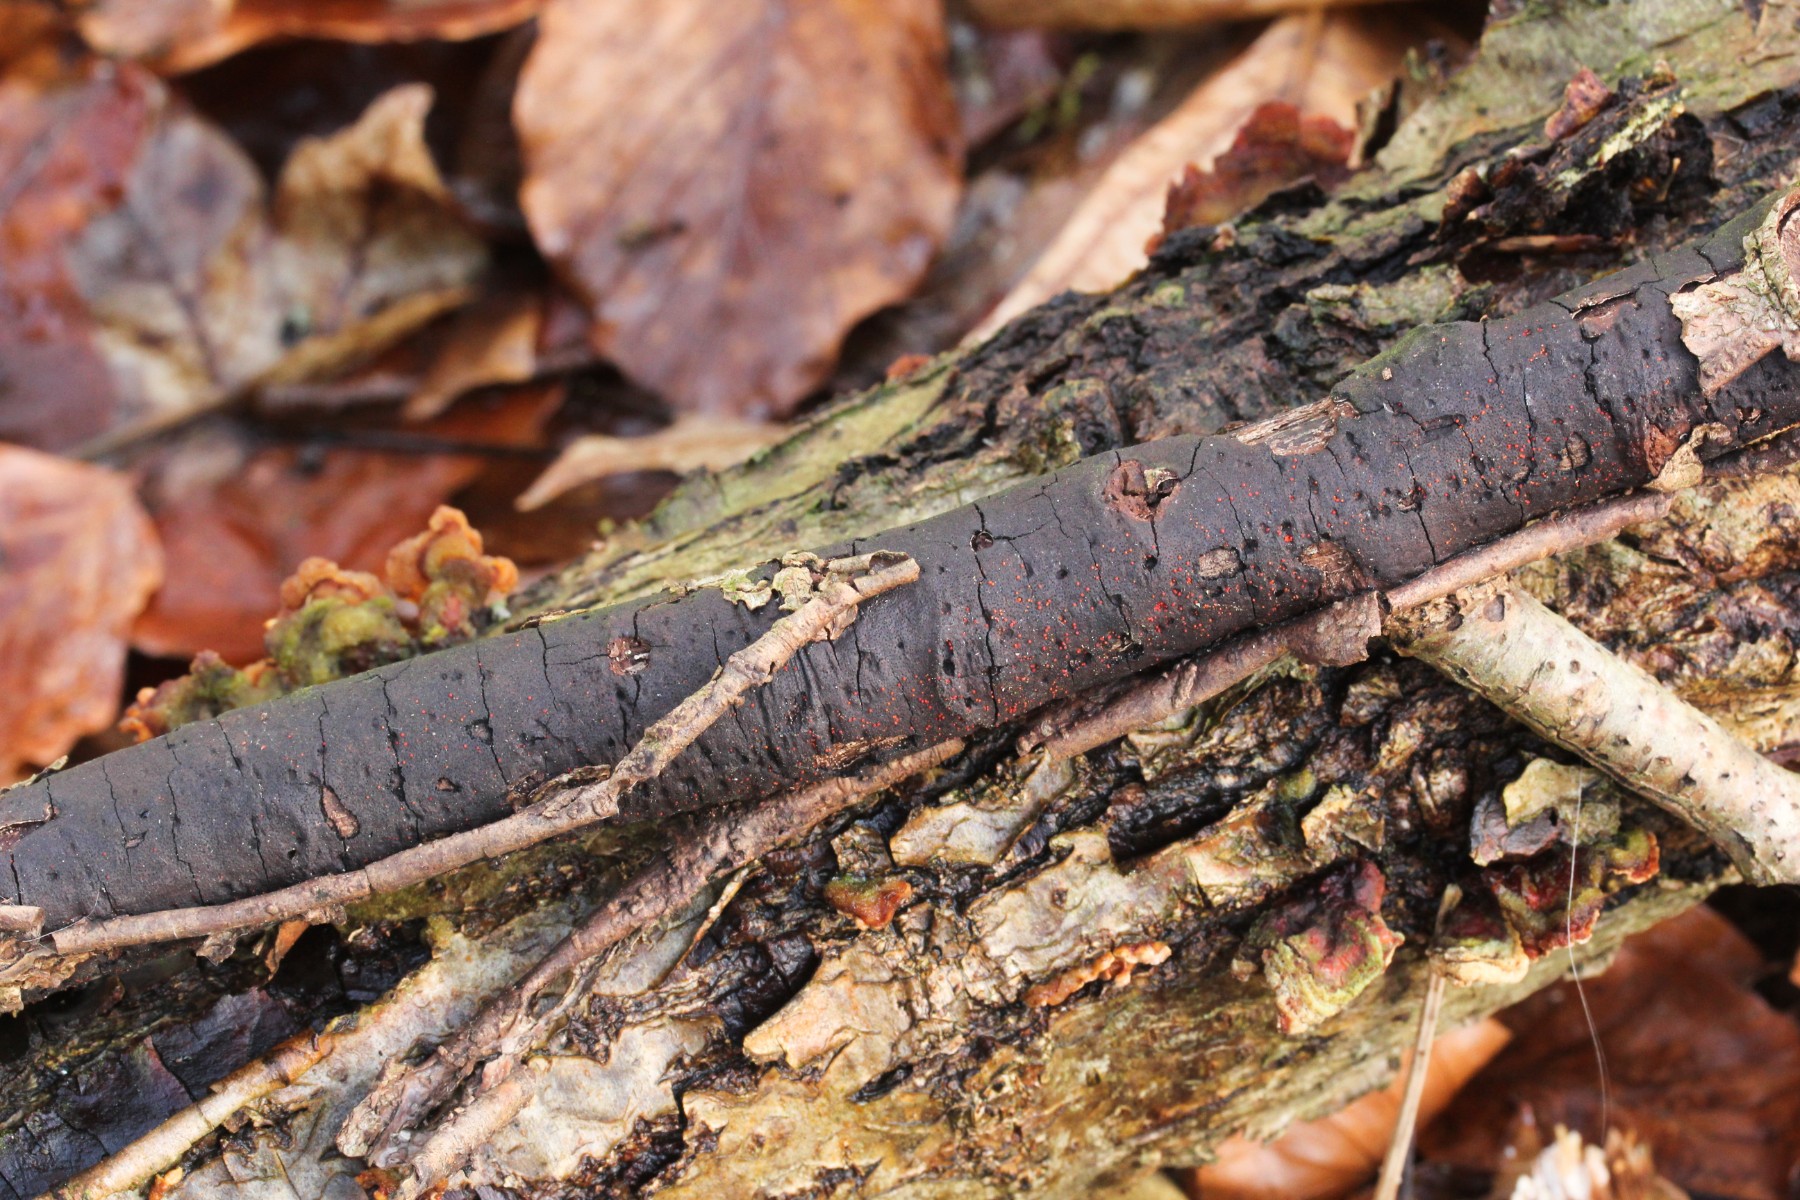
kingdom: Fungi
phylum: Ascomycota
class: Sordariomycetes
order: Xylariales
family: Diatrypaceae
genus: Diatrype
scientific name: Diatrype stigma
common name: udbredt kulskorpe
